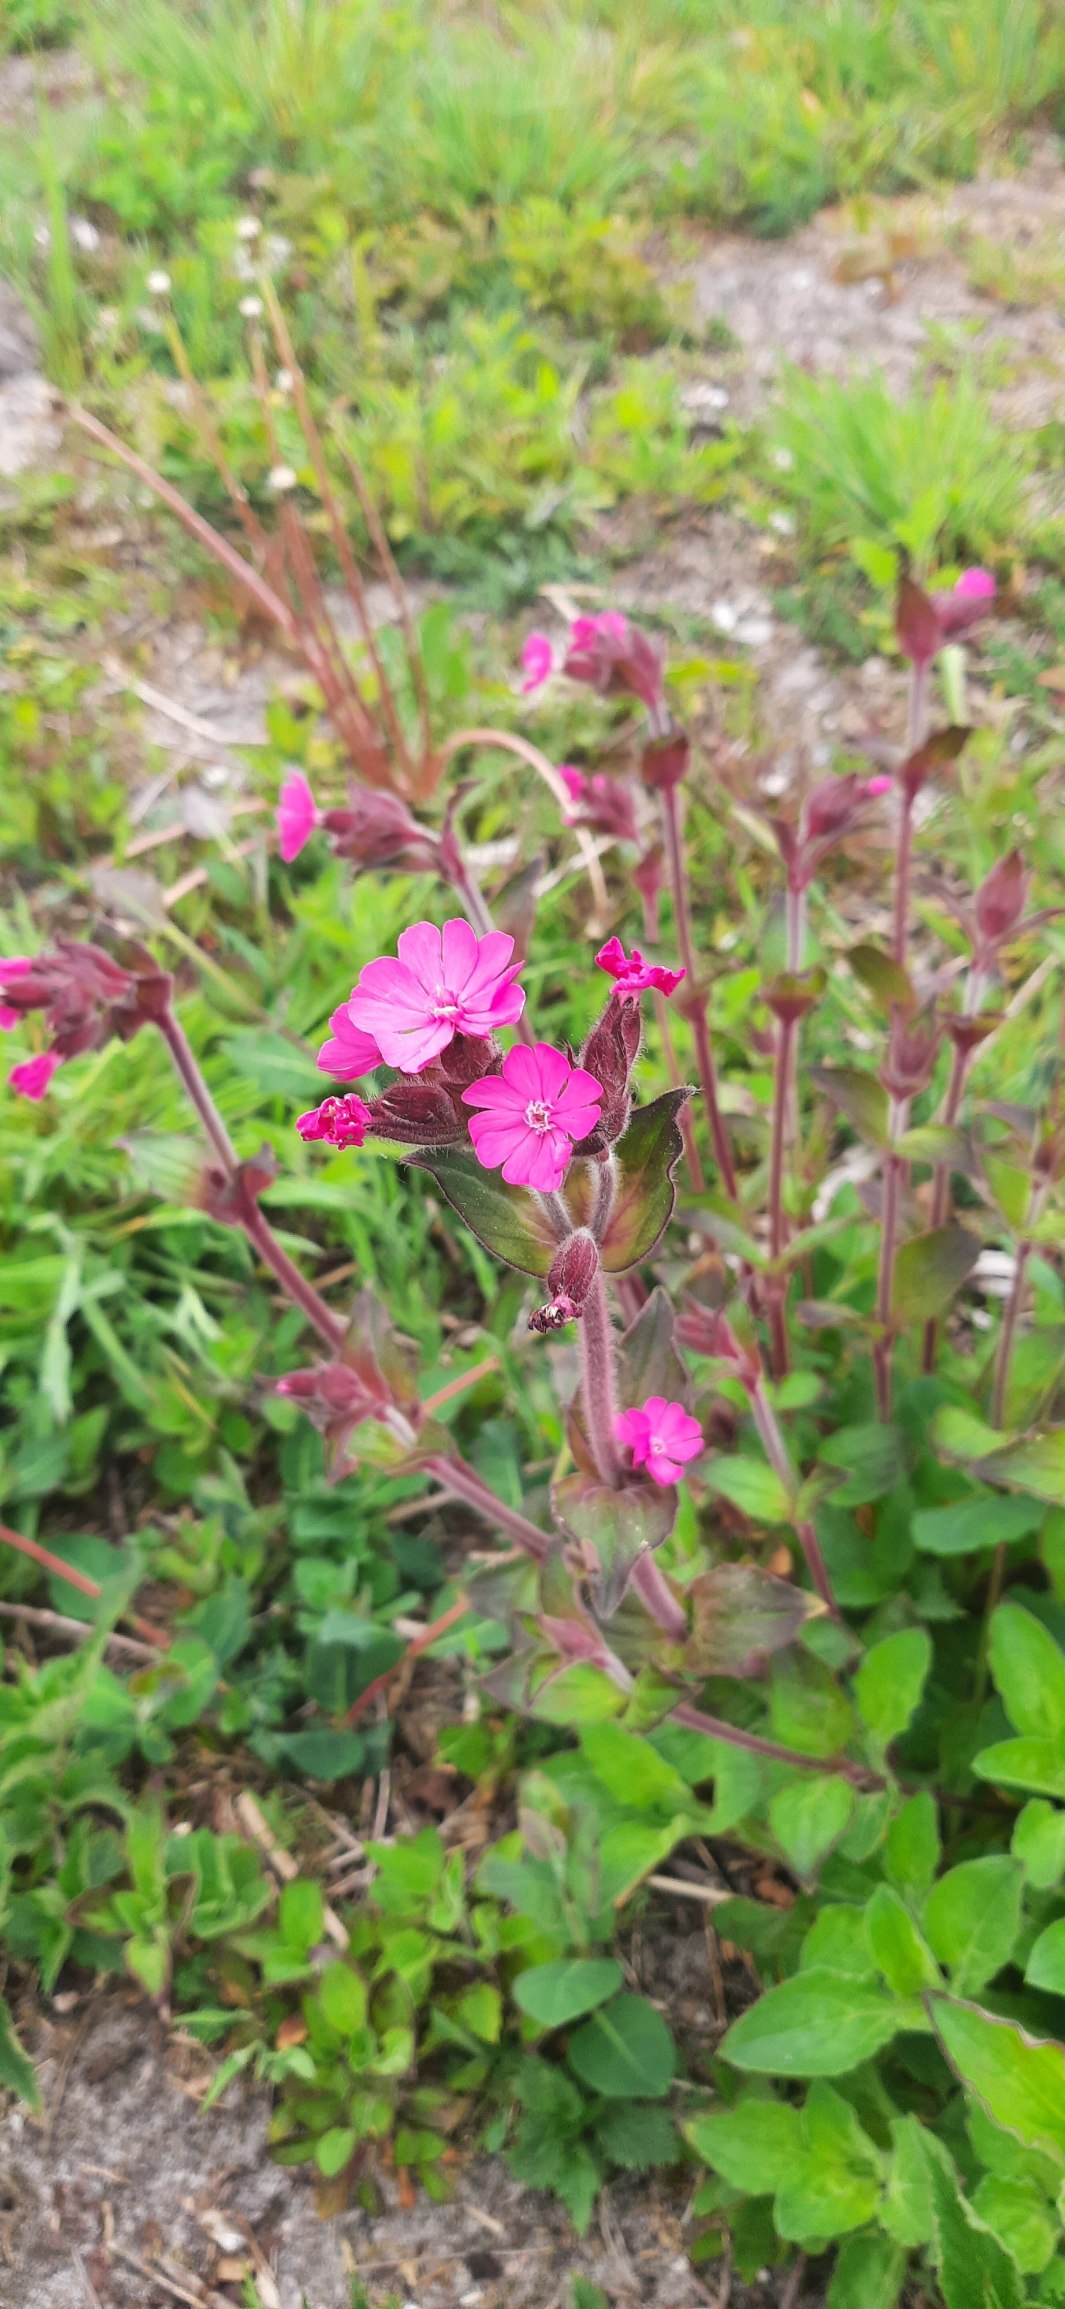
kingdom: Plantae
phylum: Tracheophyta
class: Magnoliopsida
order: Caryophyllales
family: Caryophyllaceae
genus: Silene
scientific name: Silene dioica
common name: Dagpragtstjerne
